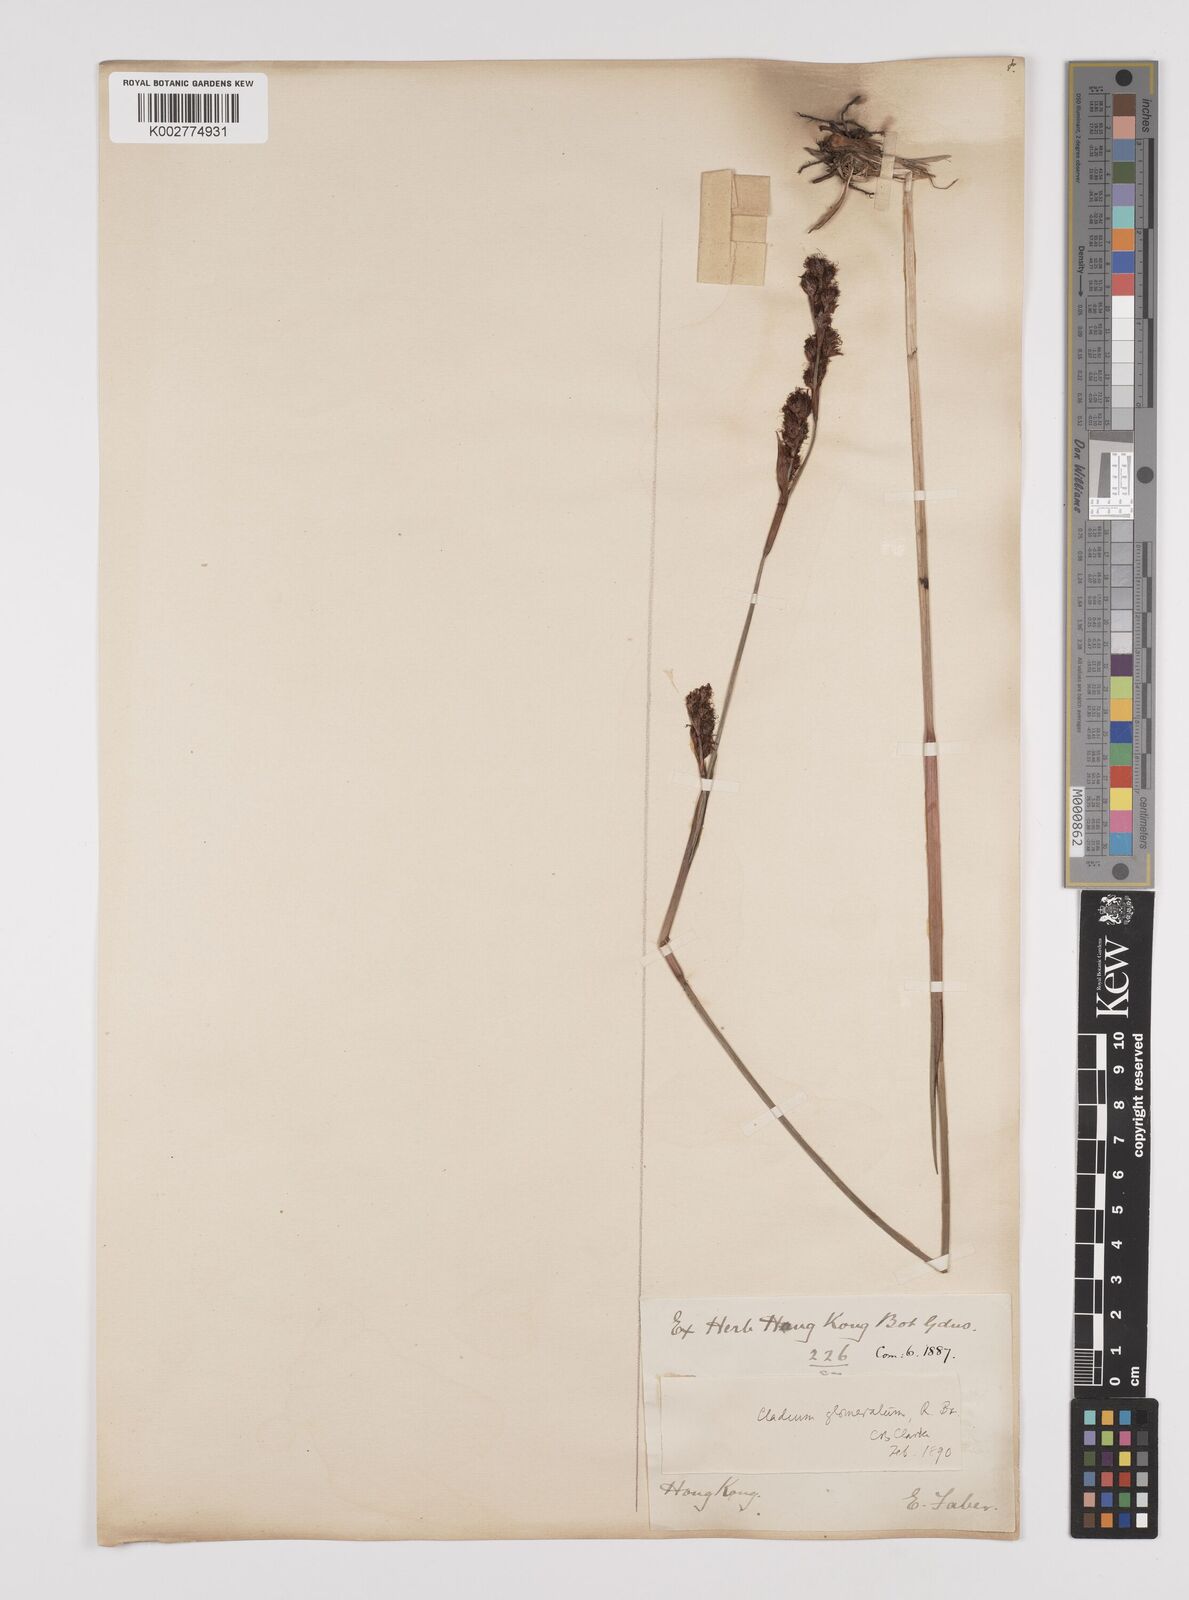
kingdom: Plantae
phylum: Tracheophyta
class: Liliopsida
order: Poales
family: Cyperaceae
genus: Machaerina
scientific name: Machaerina rubiginosa
